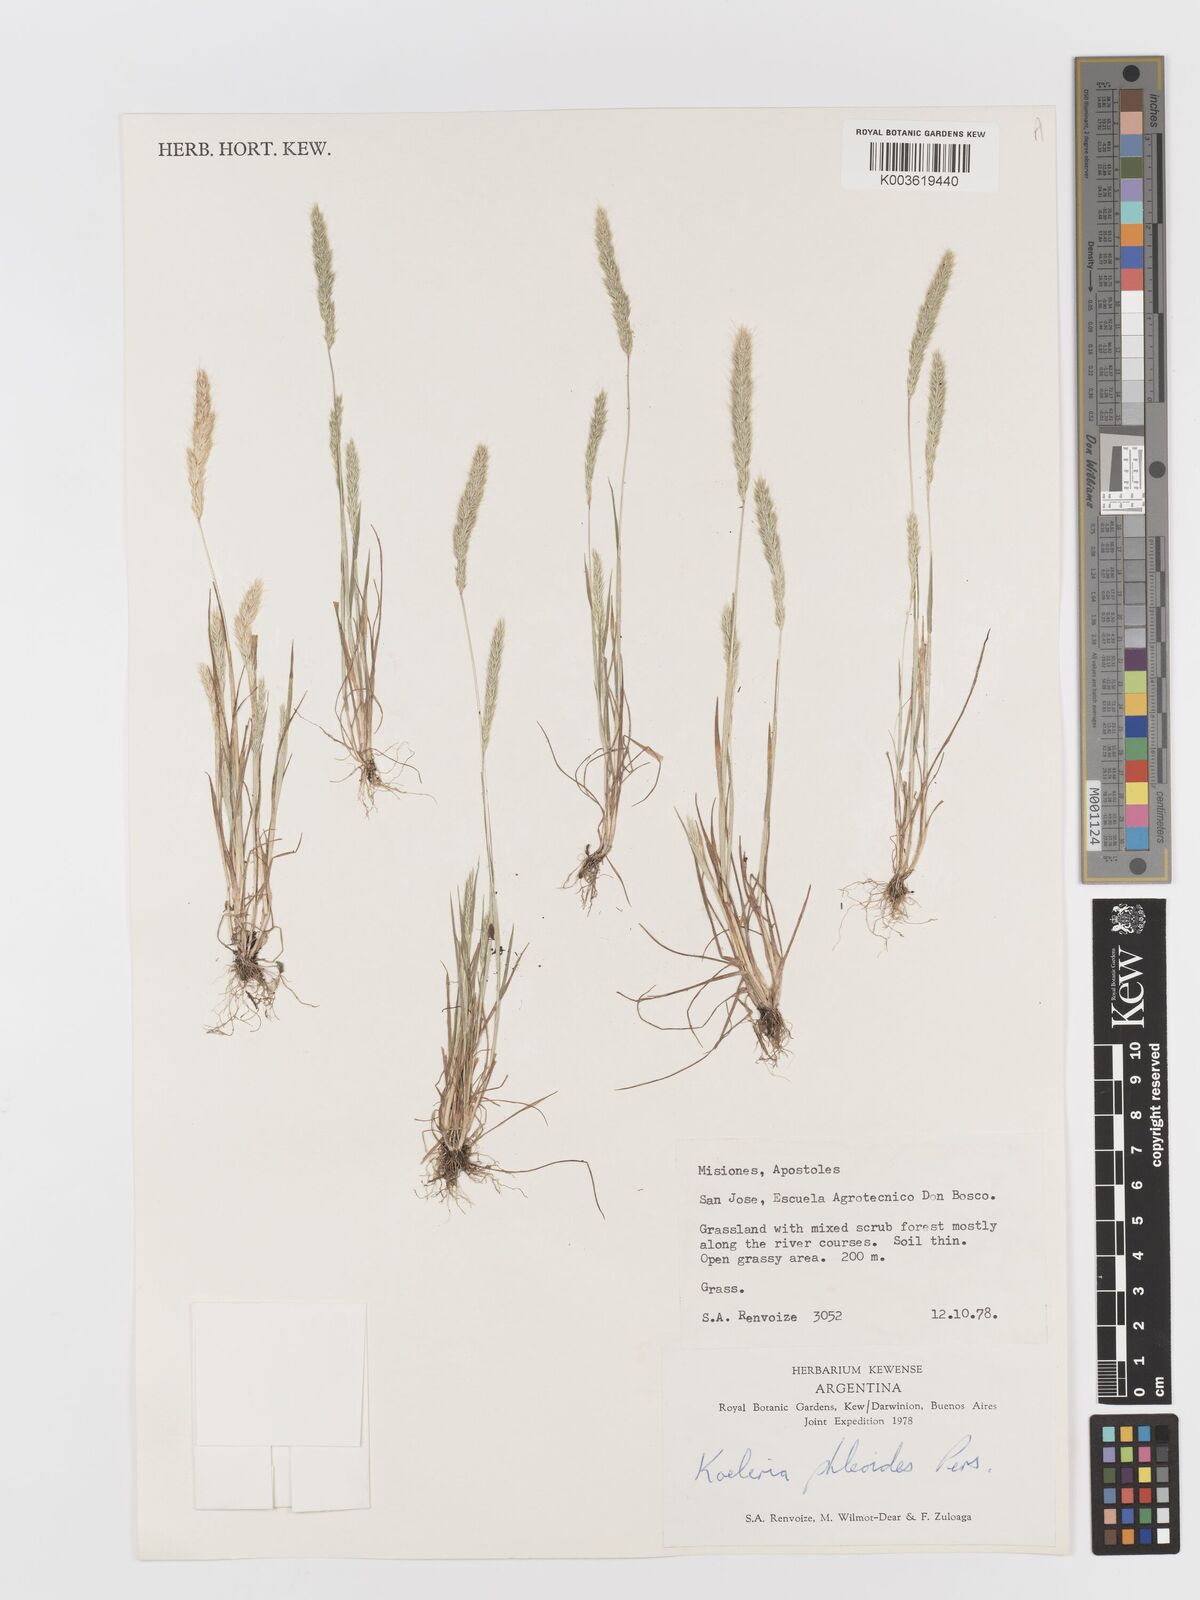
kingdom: Plantae
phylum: Tracheophyta
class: Liliopsida
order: Poales
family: Poaceae
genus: Rostraria
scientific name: Rostraria cristata
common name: Mediterranean hair-grass
